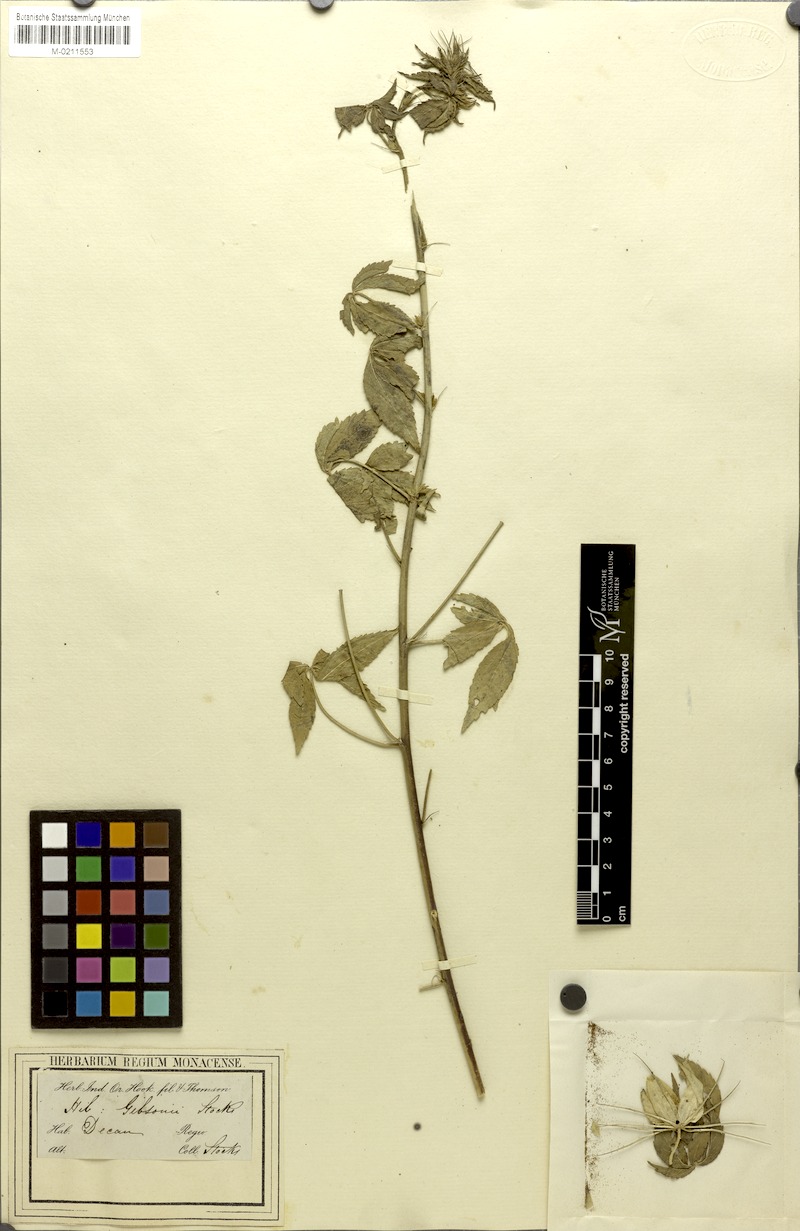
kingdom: Plantae
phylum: Tracheophyta
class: Magnoliopsida
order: Malvales
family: Malvaceae
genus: Hibiscus
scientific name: Hibiscus caesius
